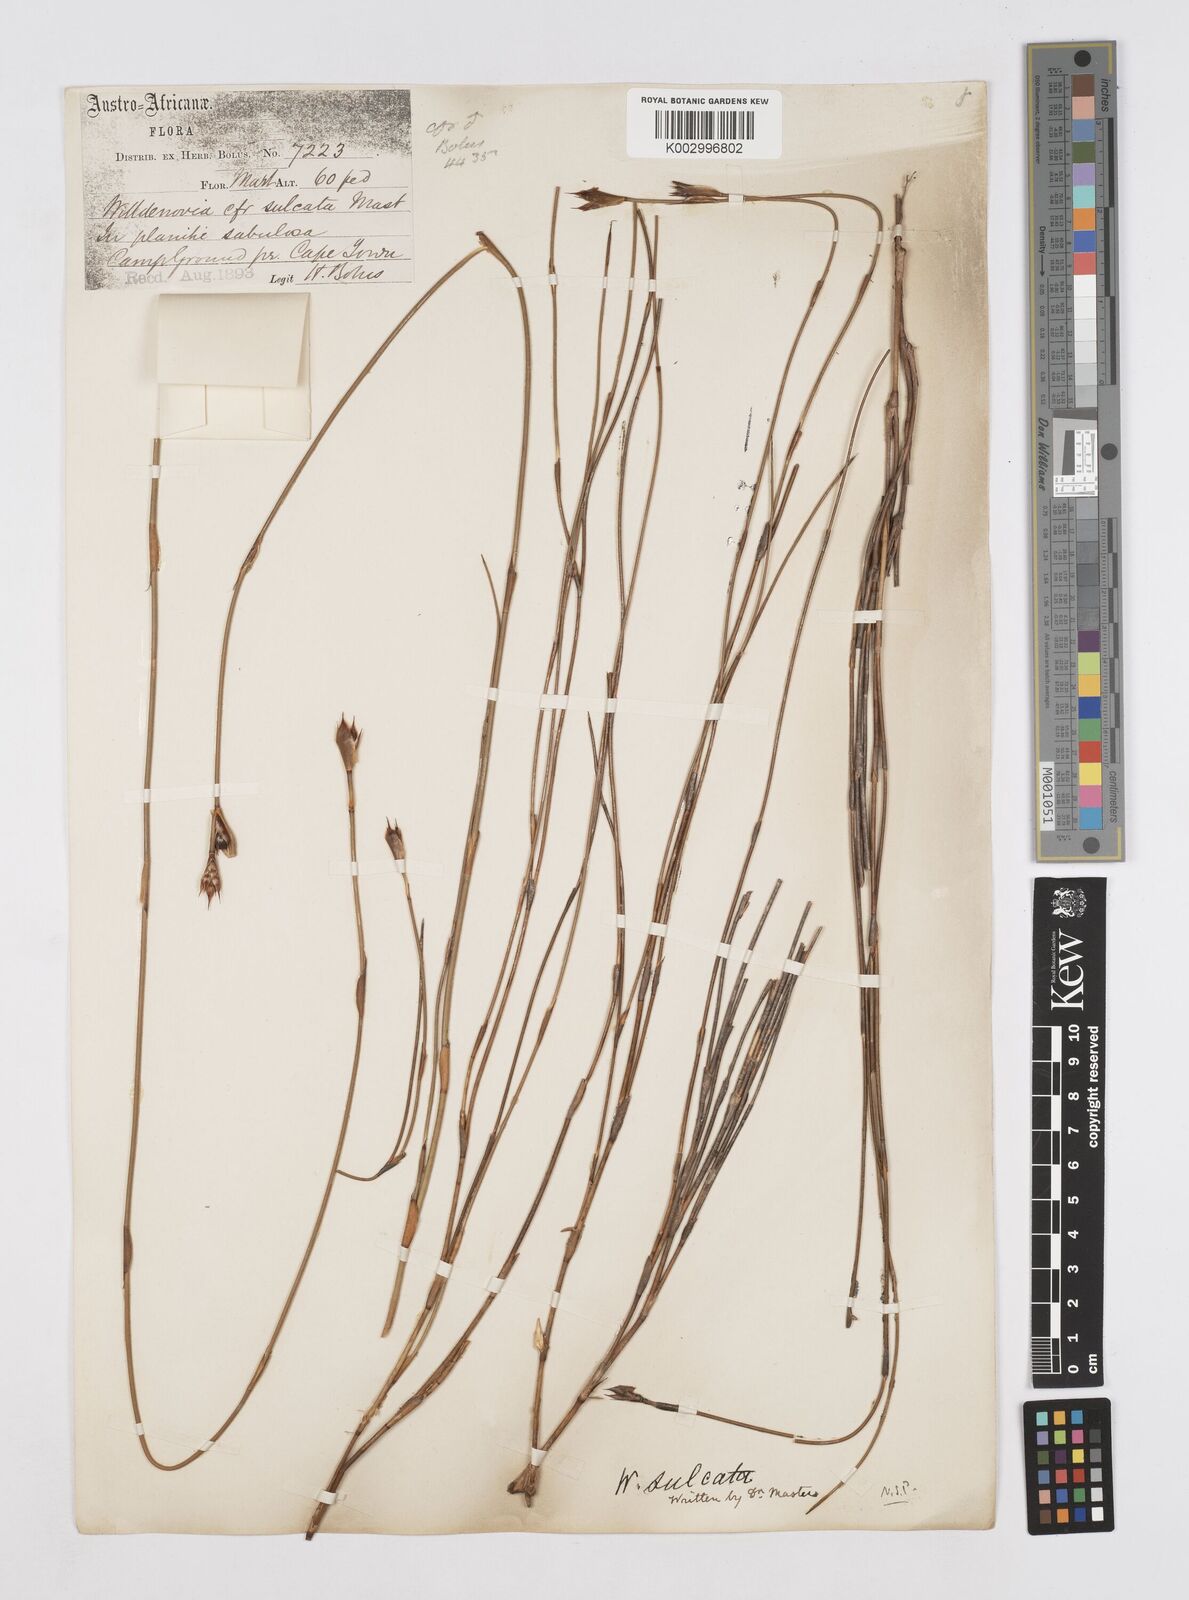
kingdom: Plantae
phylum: Tracheophyta
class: Liliopsida
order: Poales
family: Restionaceae
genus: Willdenowia
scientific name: Willdenowia sulcata
